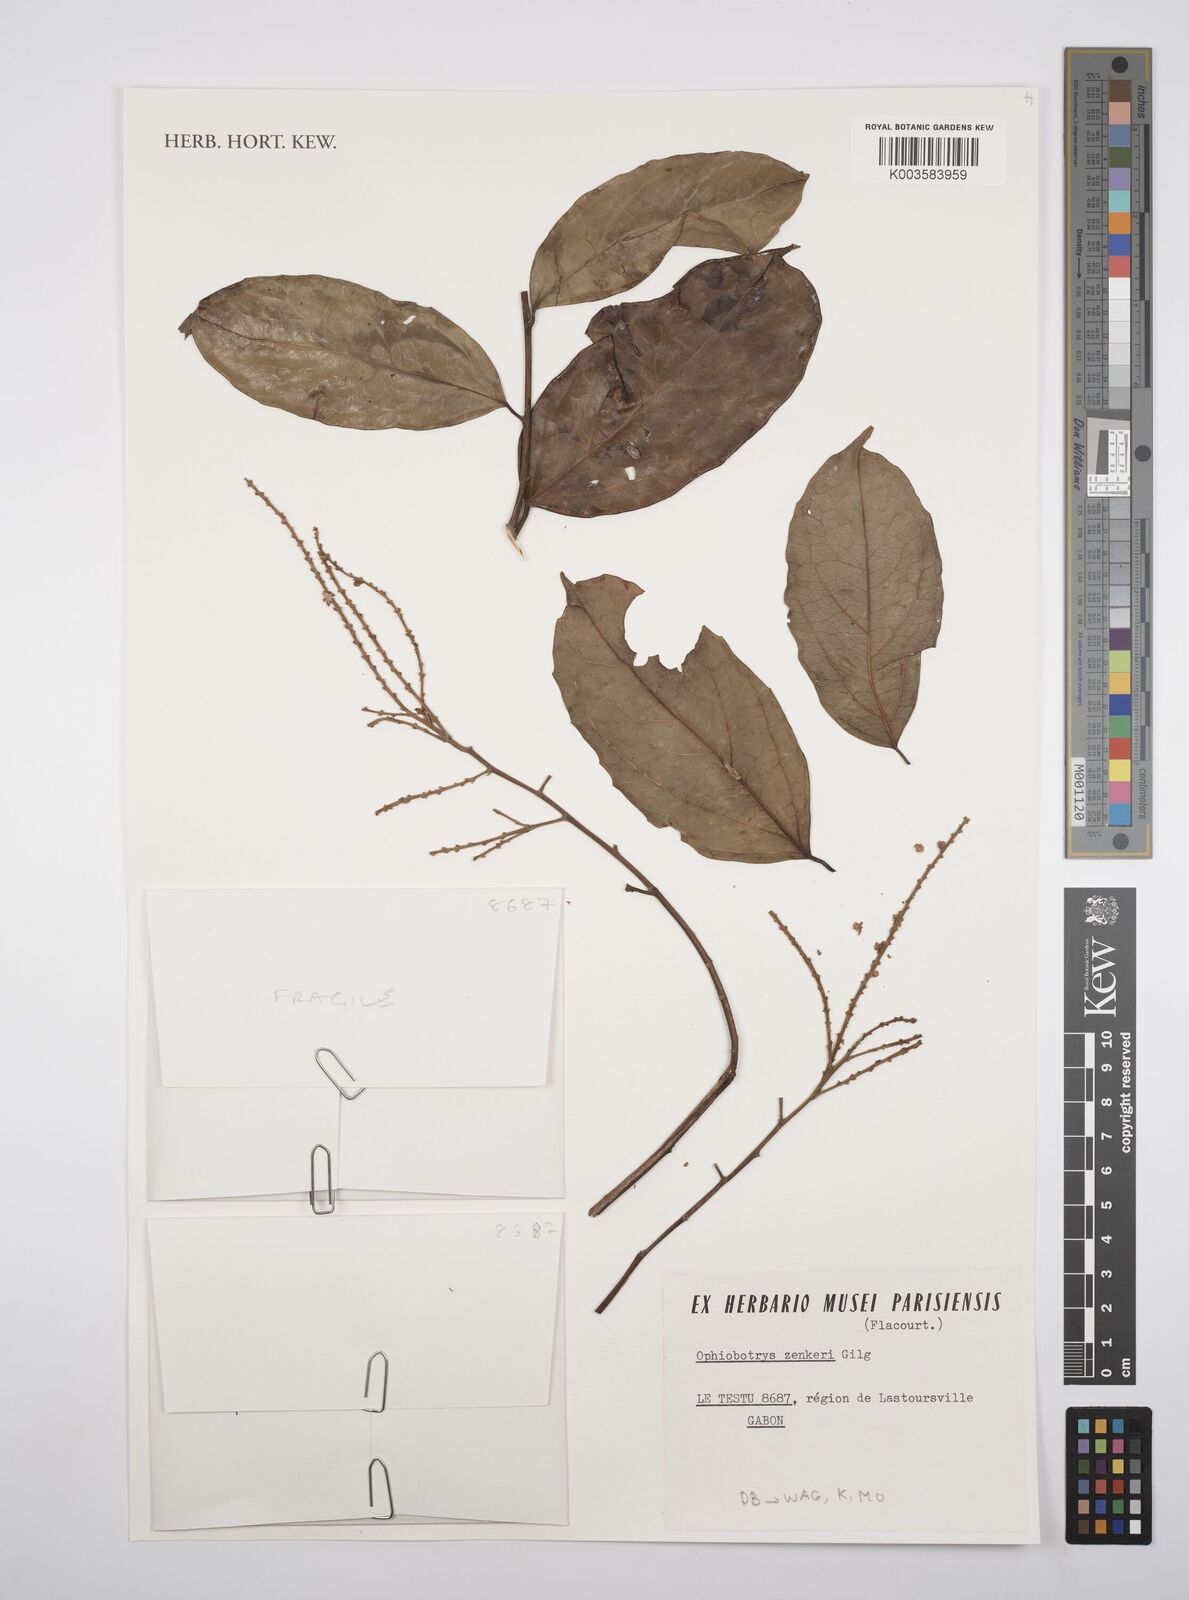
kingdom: Plantae
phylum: Tracheophyta
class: Magnoliopsida
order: Malpighiales
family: Salicaceae
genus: Ophiobotrys
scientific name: Ophiobotrys zenkeri
